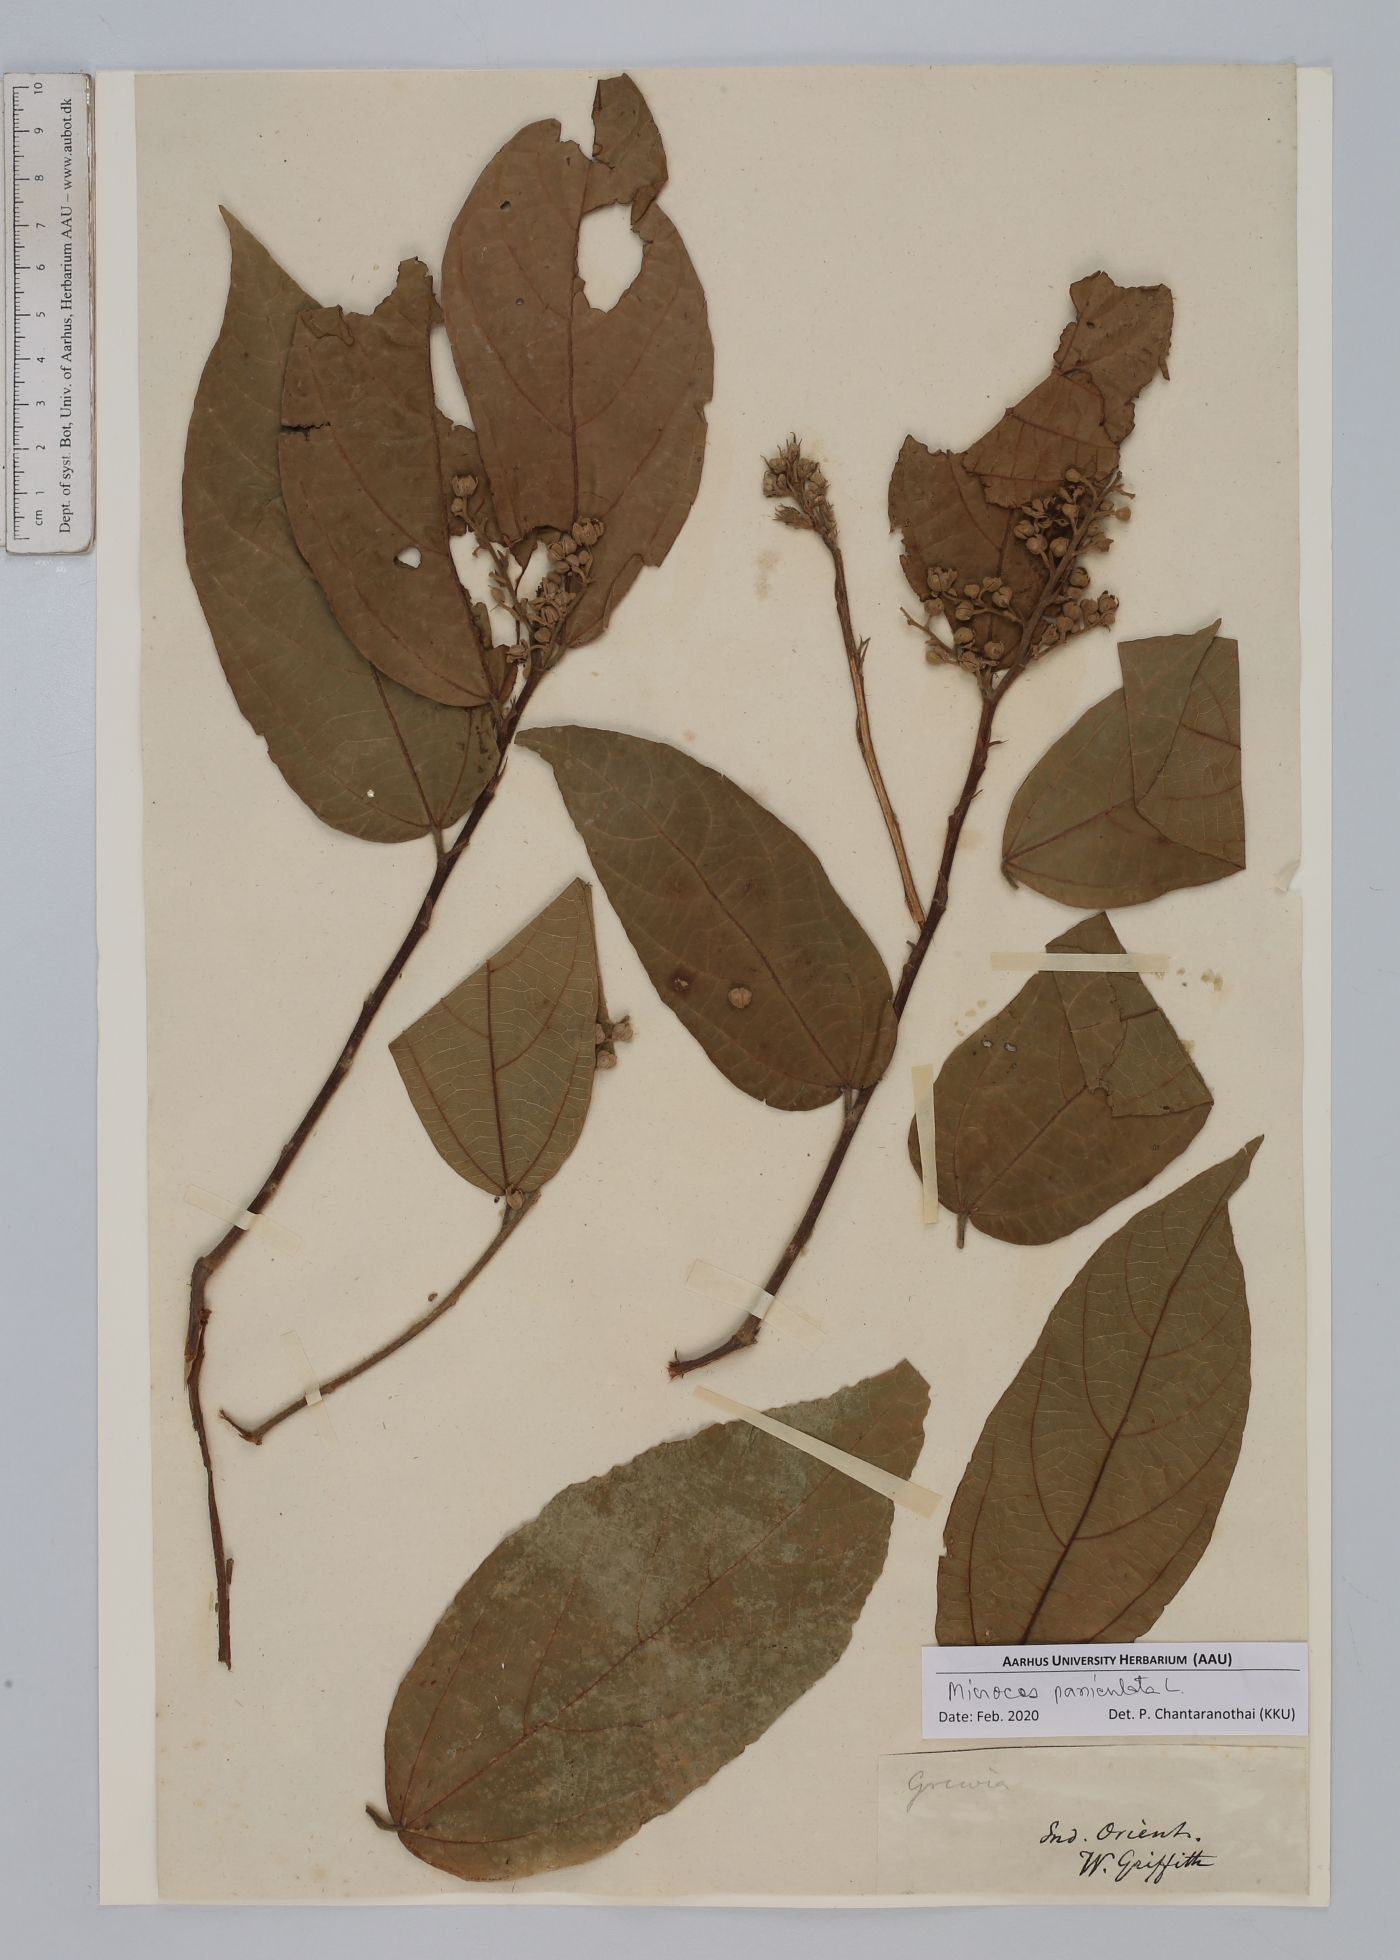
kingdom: Plantae
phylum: Tracheophyta
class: Magnoliopsida
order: Malvales
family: Malvaceae
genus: Microcos
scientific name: Microcos paniculata
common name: Microcos
